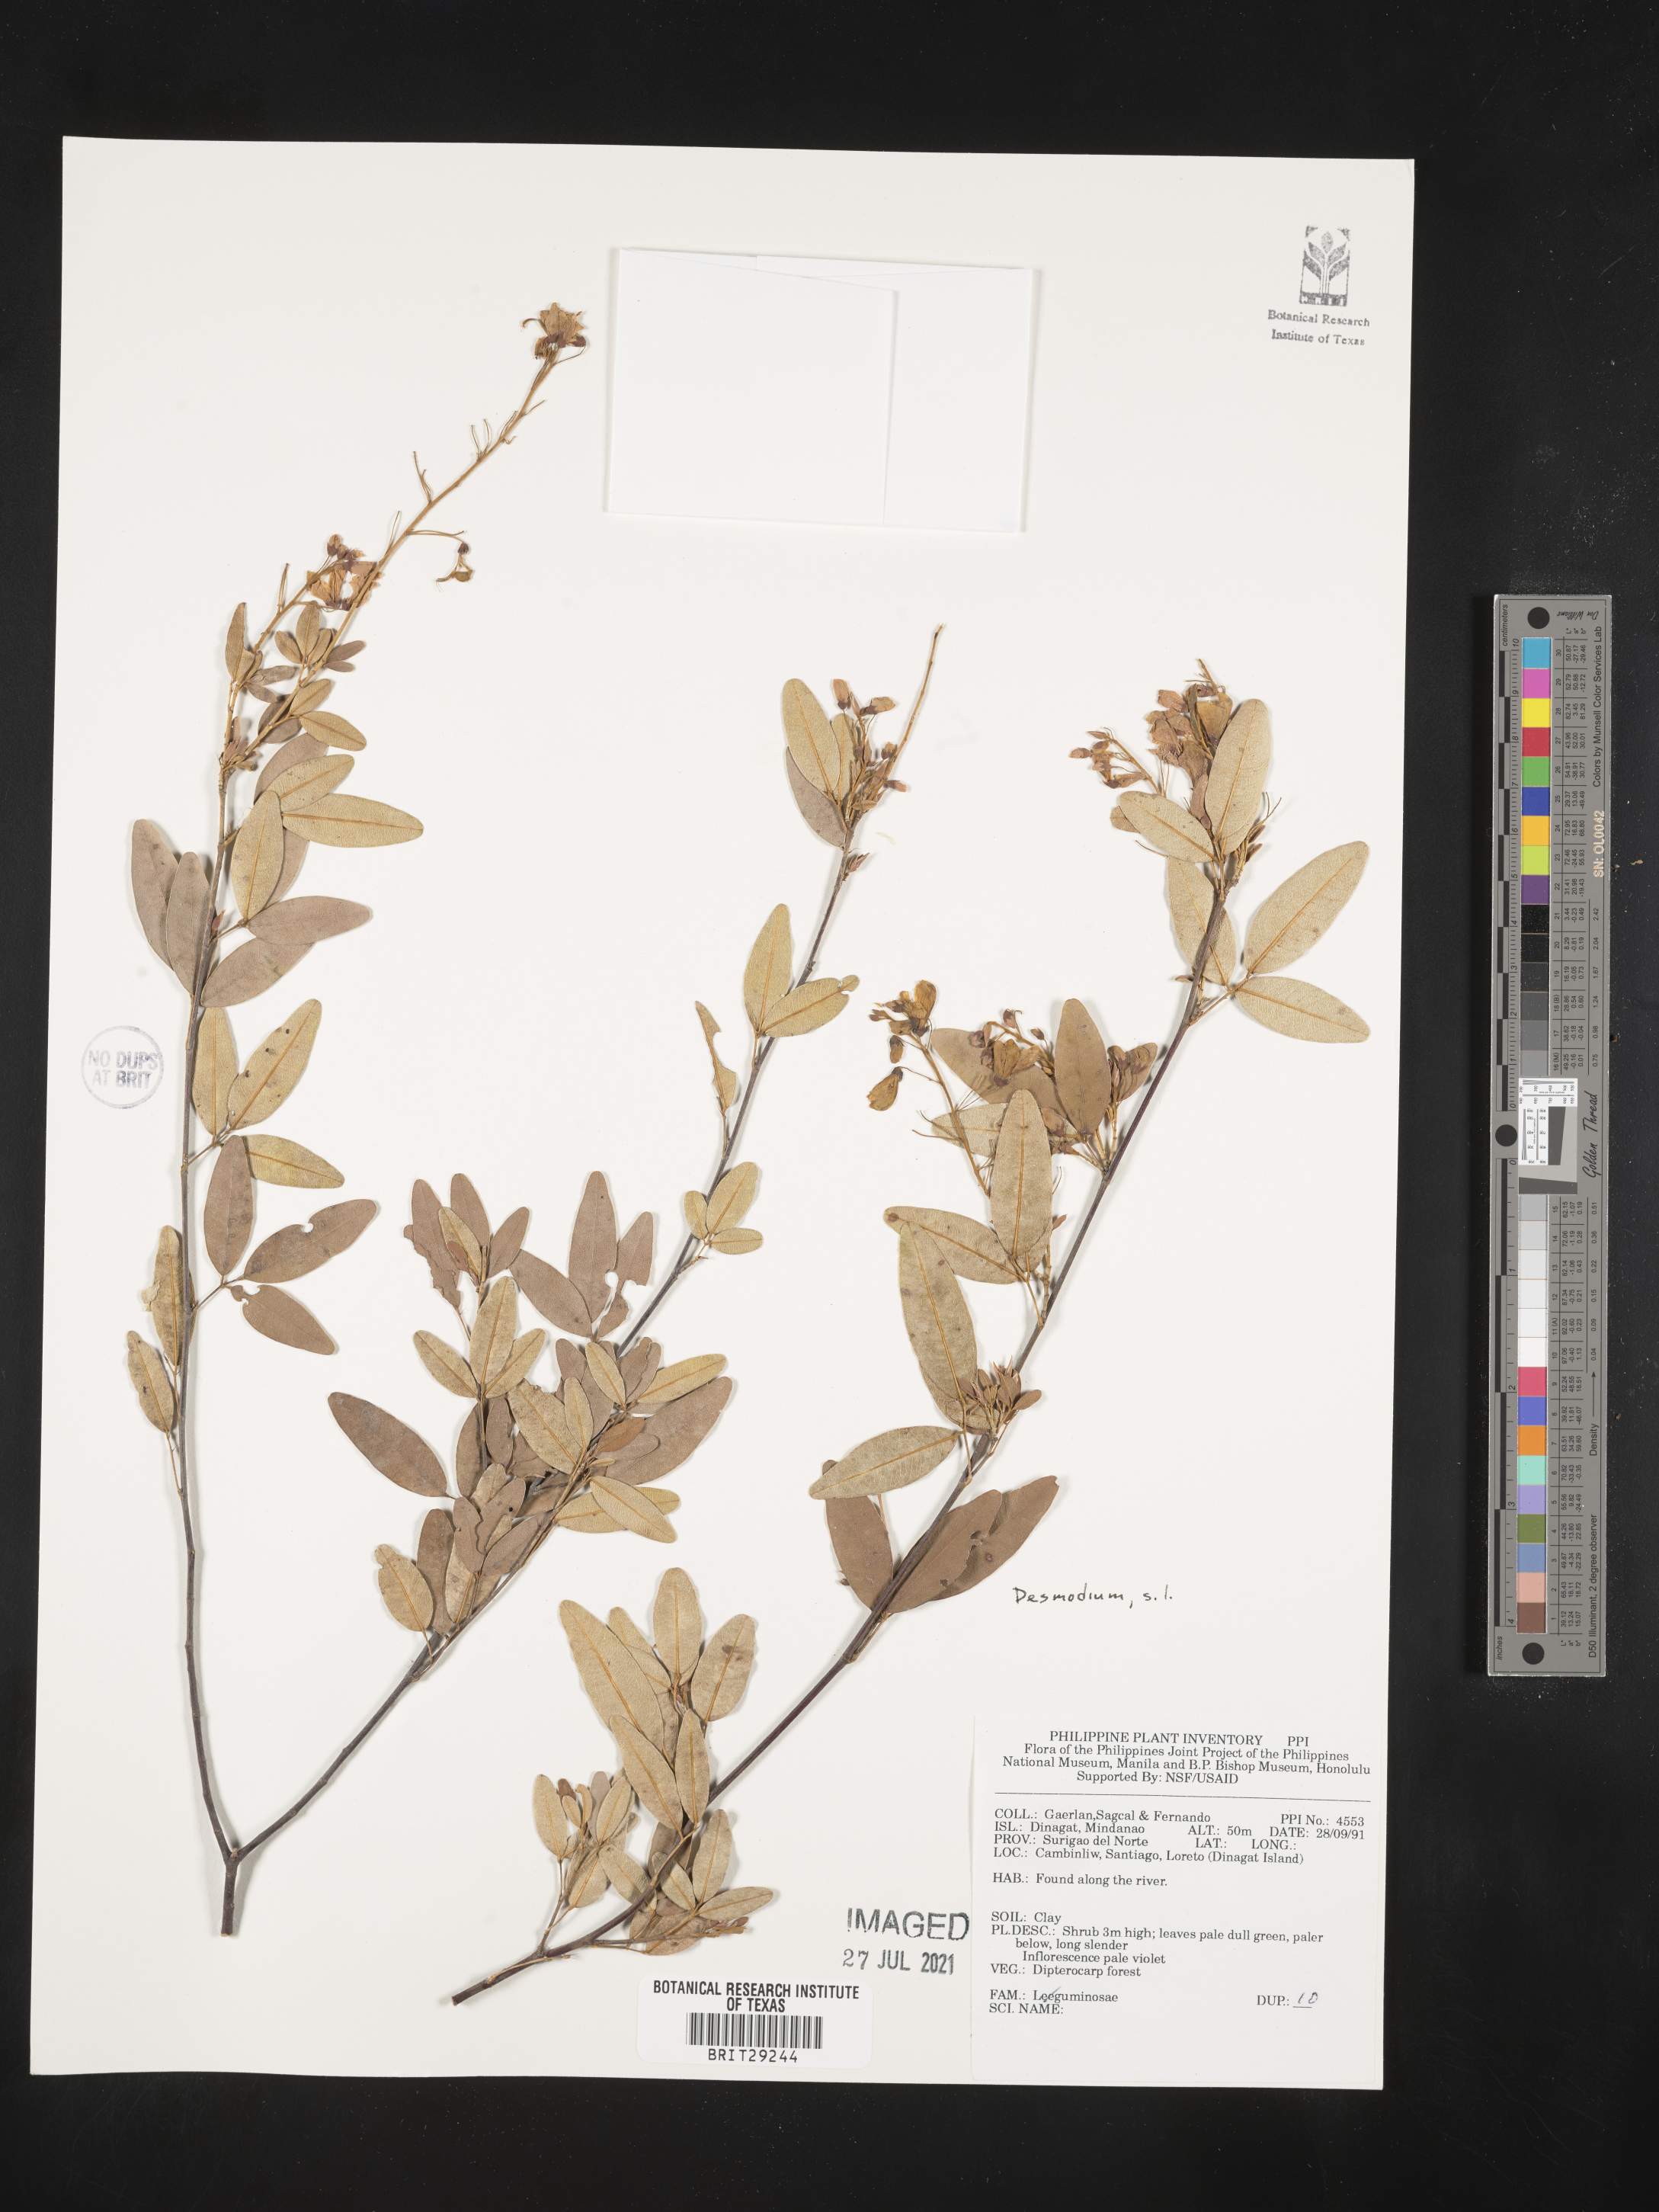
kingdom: Plantae
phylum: Tracheophyta
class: Magnoliopsida
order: Fabales
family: Fabaceae
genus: Desmodium
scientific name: Desmodium
